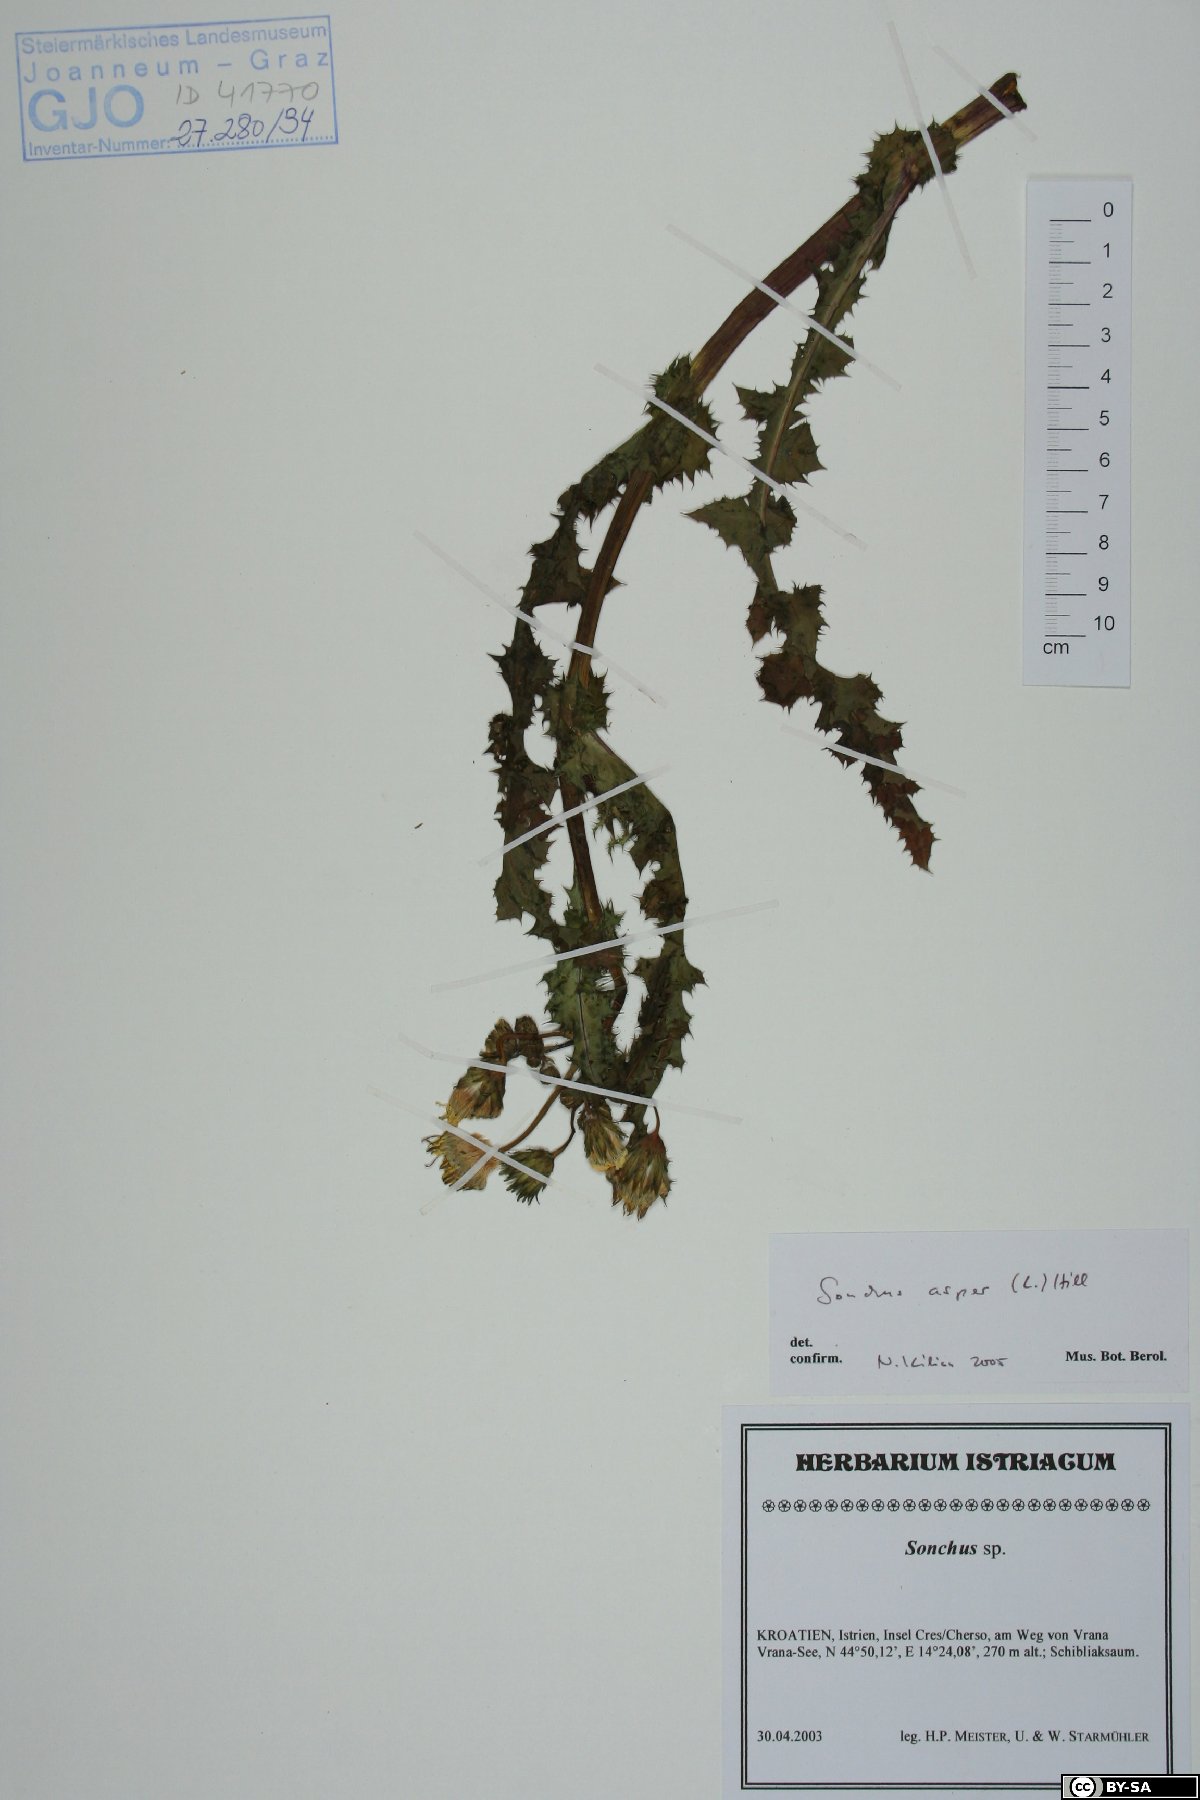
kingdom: Plantae
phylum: Tracheophyta
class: Magnoliopsida
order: Asterales
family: Asteraceae
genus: Sonchus
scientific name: Sonchus asper
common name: Prickly sow-thistle
